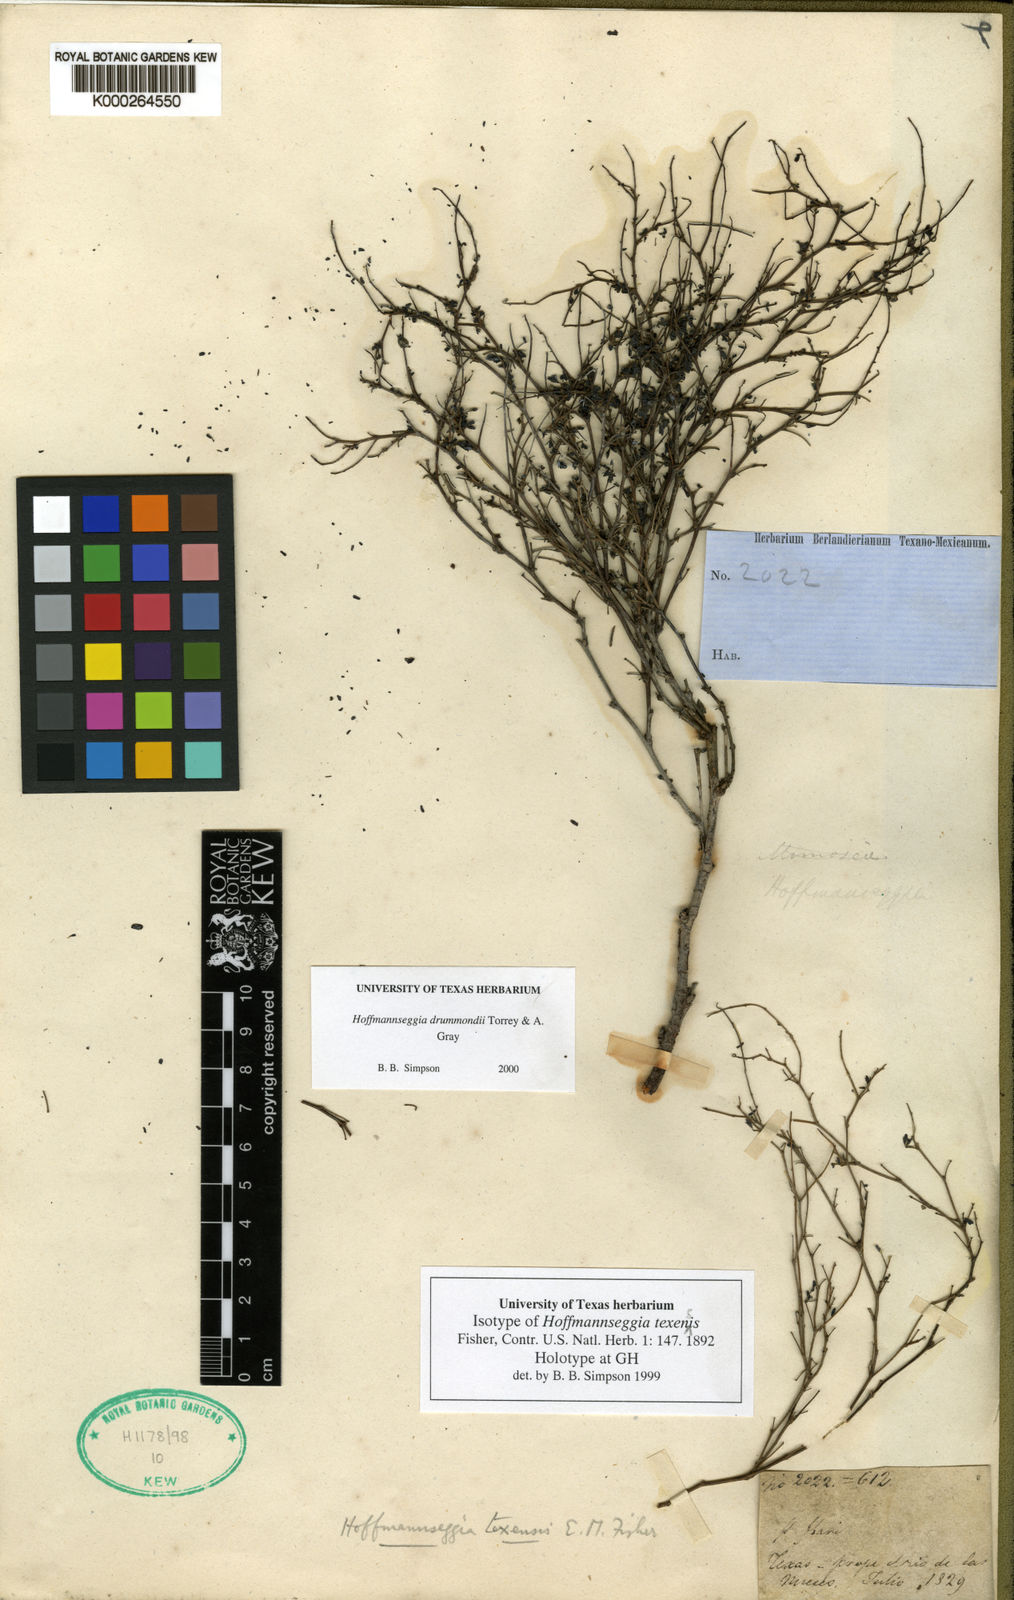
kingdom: Plantae
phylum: Tracheophyta
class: Magnoliopsida
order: Fabales
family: Fabaceae
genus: Hoffmannseggia
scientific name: Hoffmannseggia drummondii
